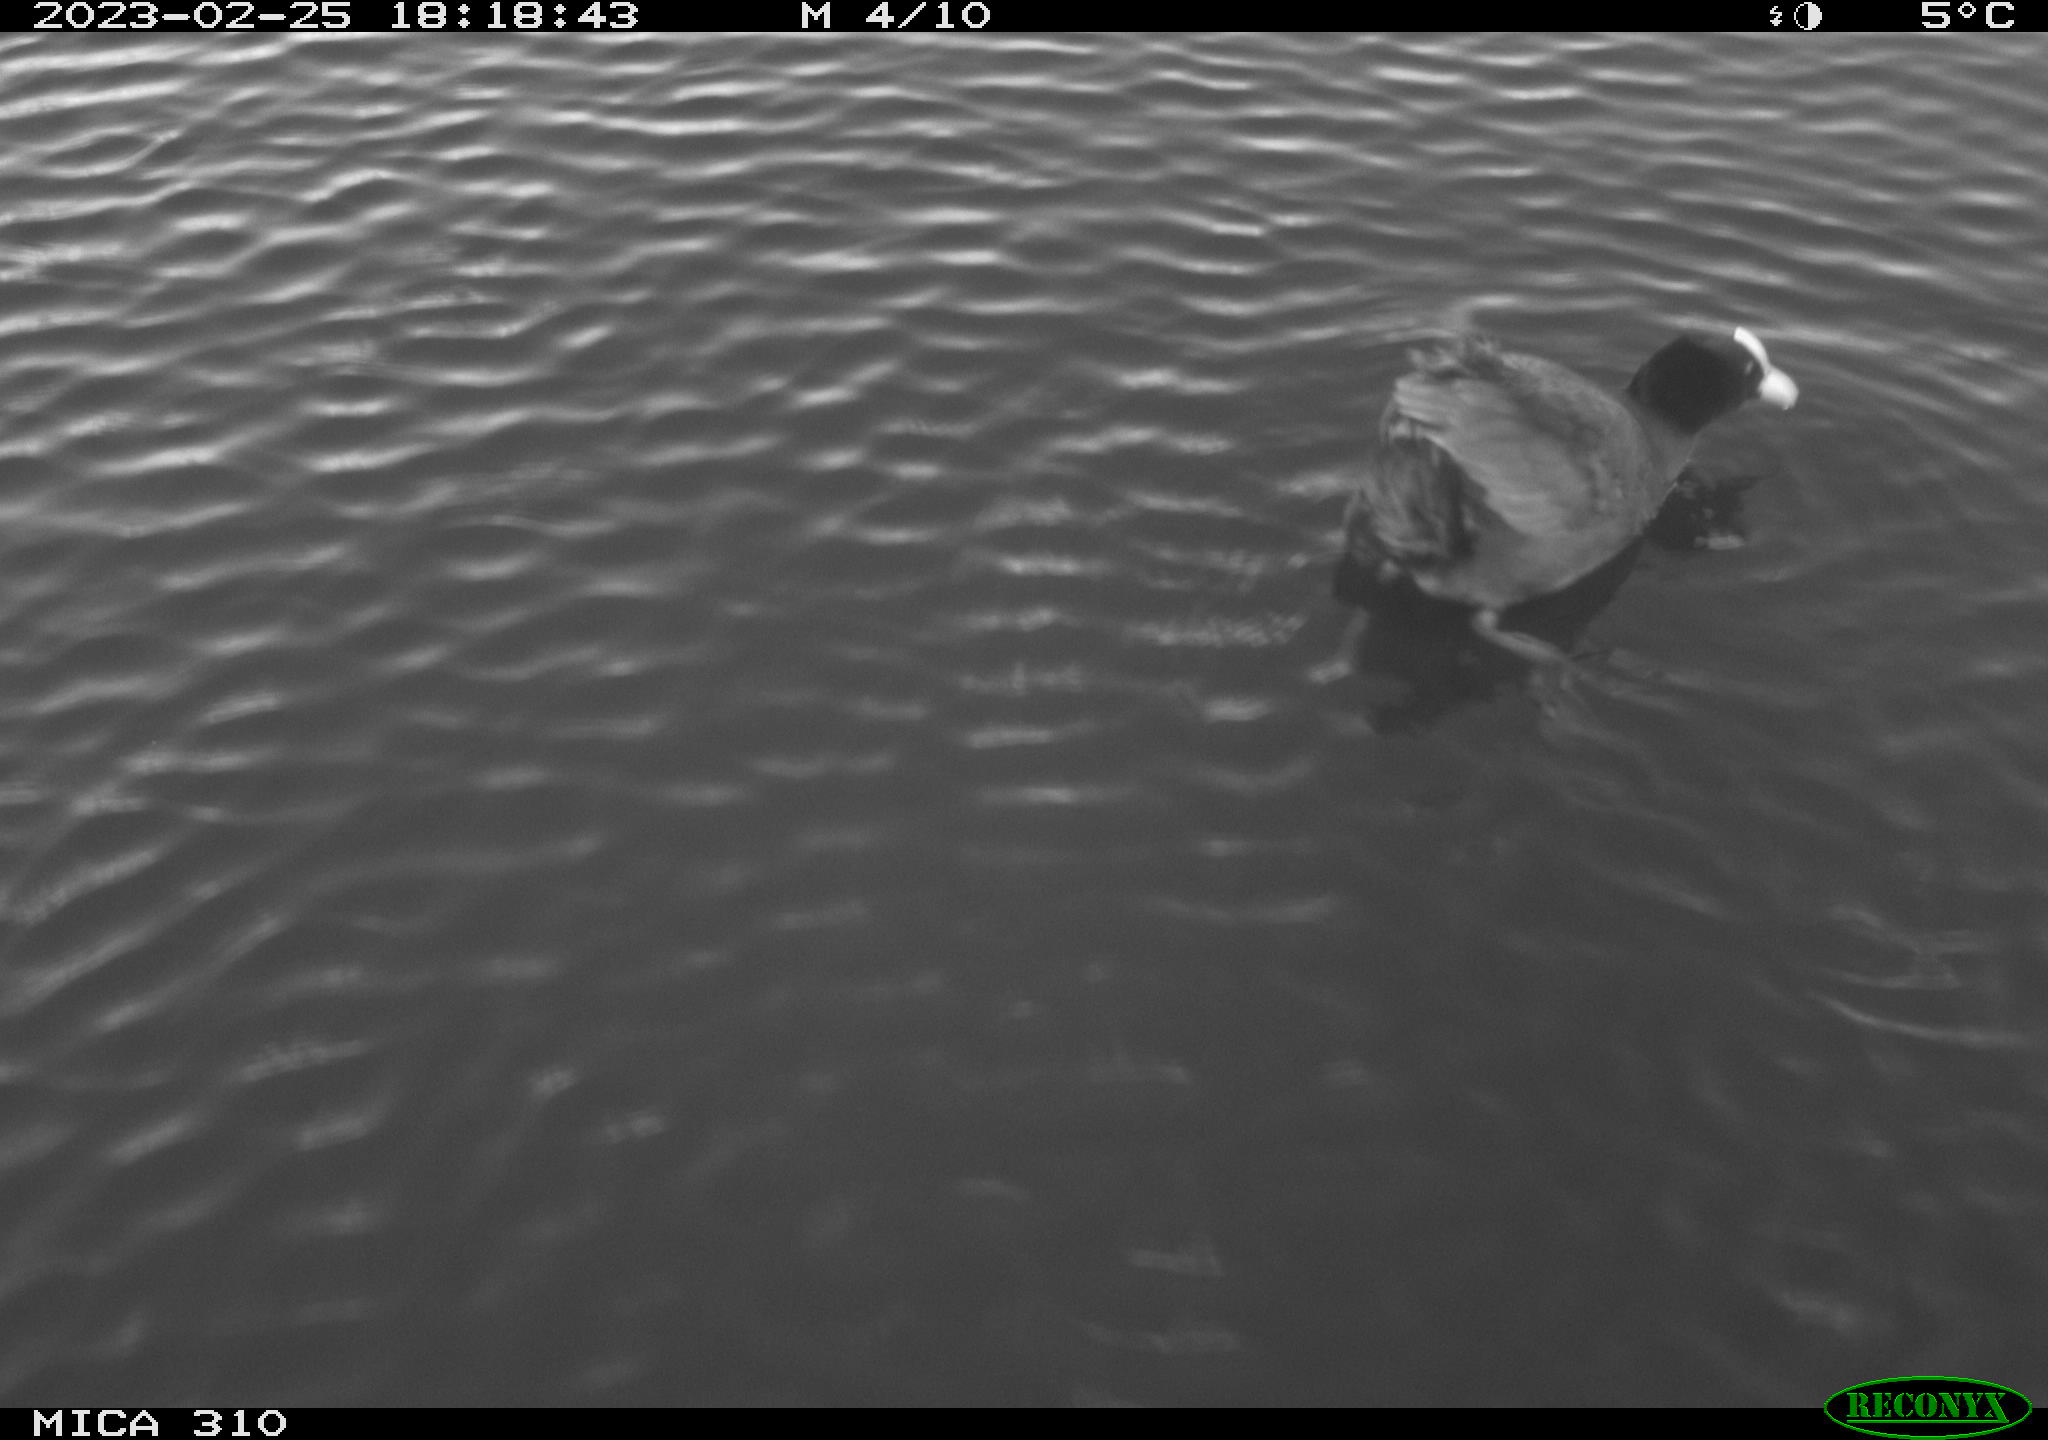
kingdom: Animalia
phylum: Chordata
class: Aves
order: Gruiformes
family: Rallidae
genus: Fulica
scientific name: Fulica atra
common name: Eurasian coot
